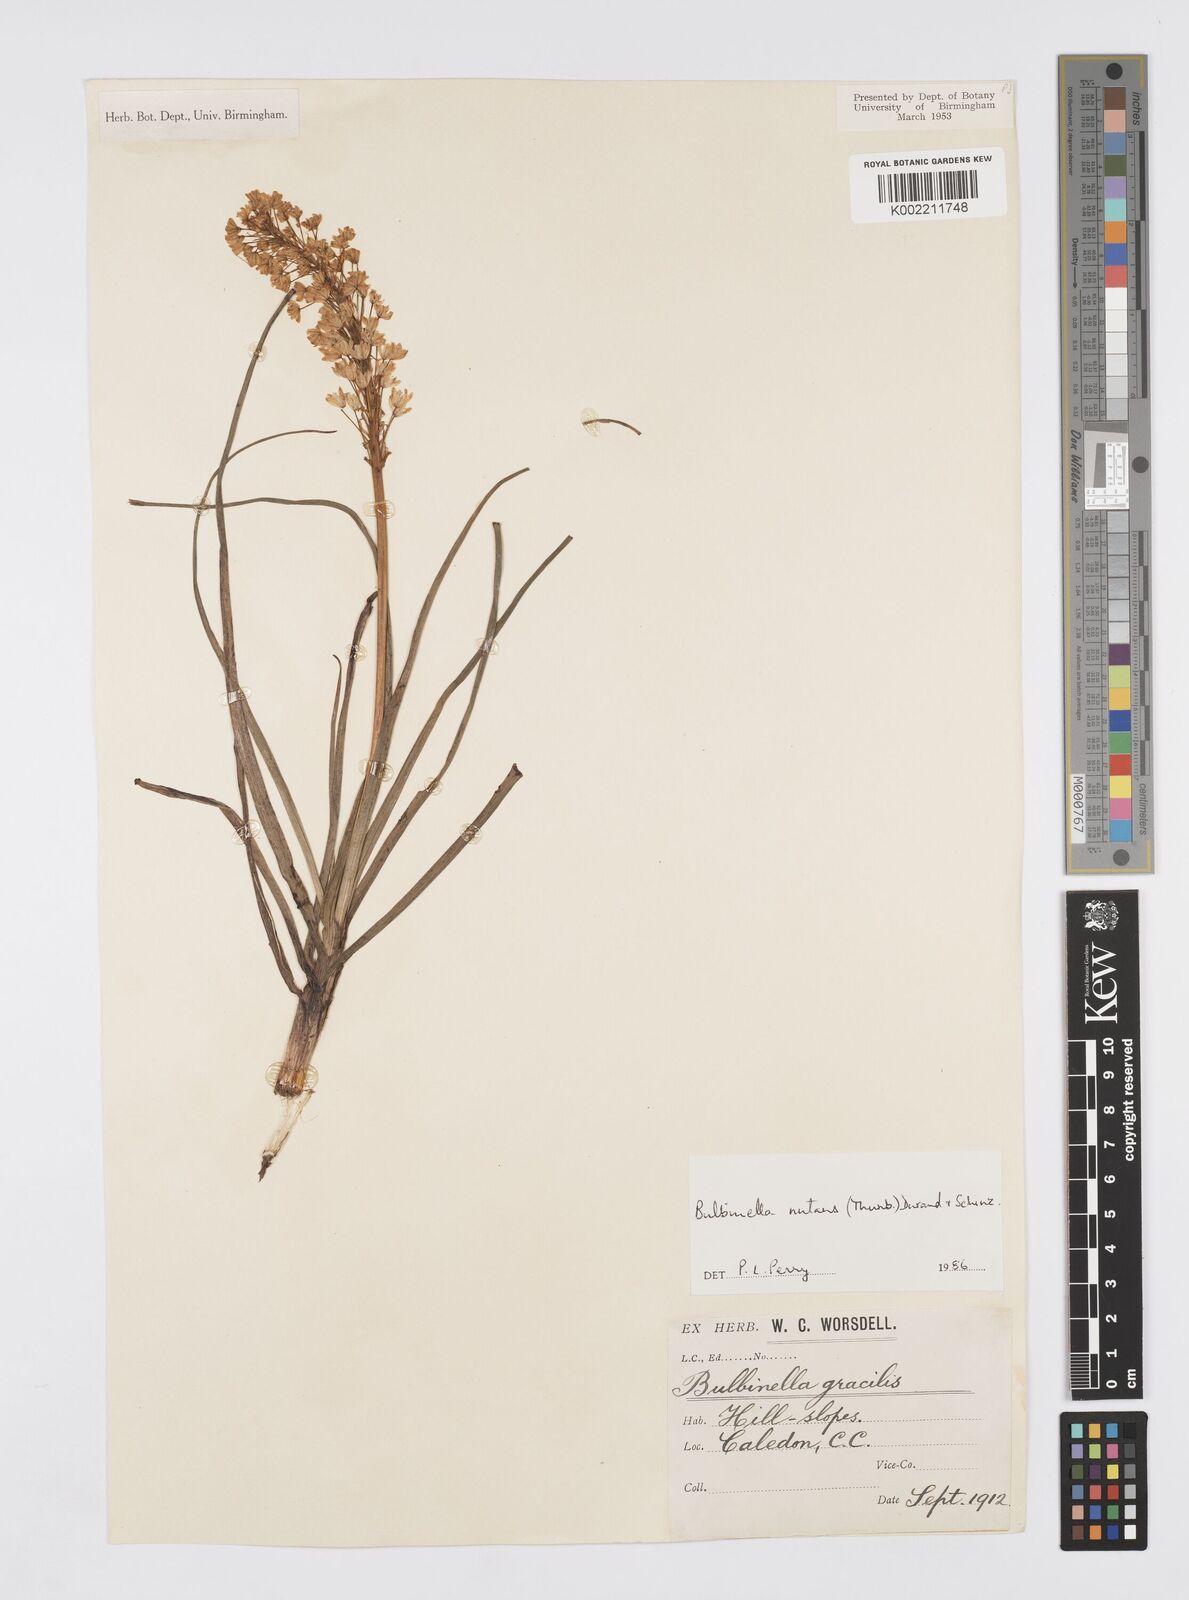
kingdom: Plantae
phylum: Tracheophyta
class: Liliopsida
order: Asparagales
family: Asphodelaceae
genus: Bulbinella
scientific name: Bulbinella nutans
